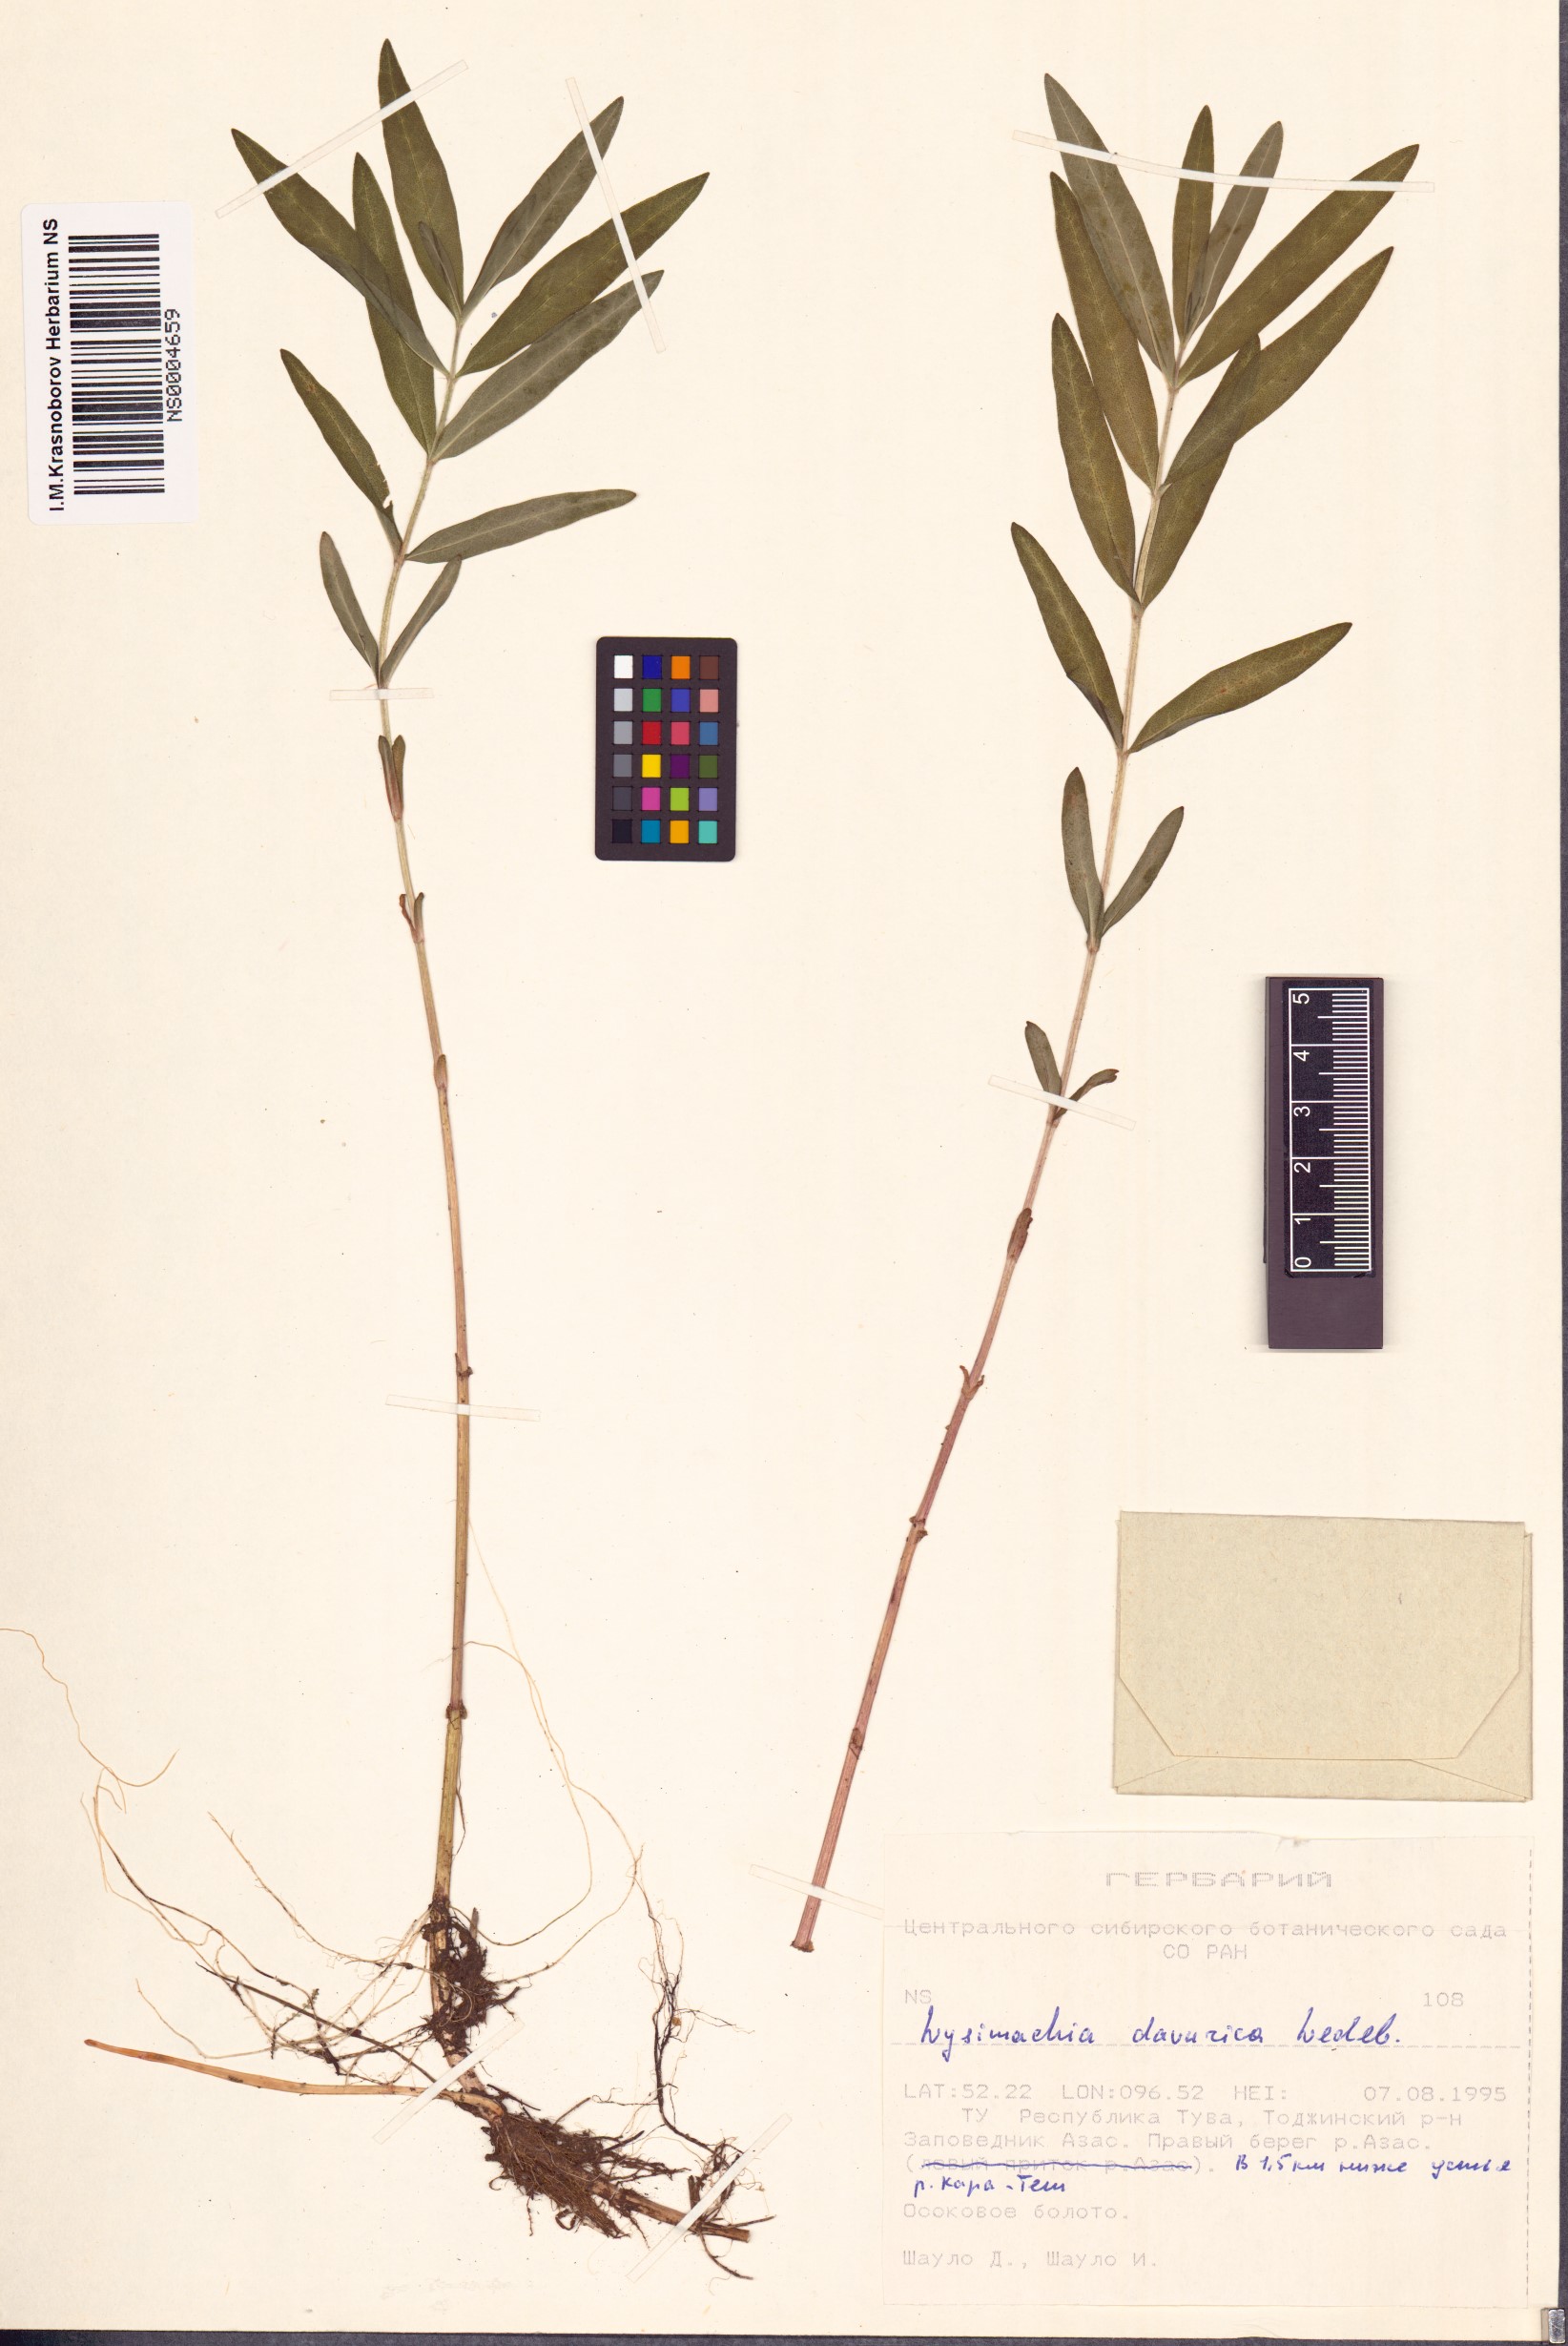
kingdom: Plantae
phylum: Tracheophyta
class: Magnoliopsida
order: Ericales
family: Primulaceae
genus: Lysimachia
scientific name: Lysimachia davurica
